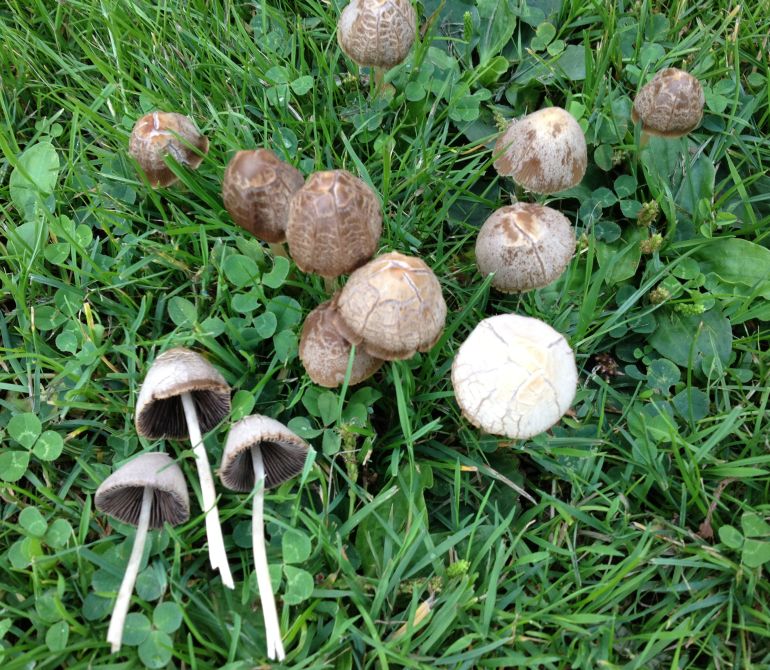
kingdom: Fungi
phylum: Basidiomycota
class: Agaricomycetes
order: Agaricales
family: Psathyrellaceae
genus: Parasola
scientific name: Parasola conopilea
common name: kegle-hjulhat
